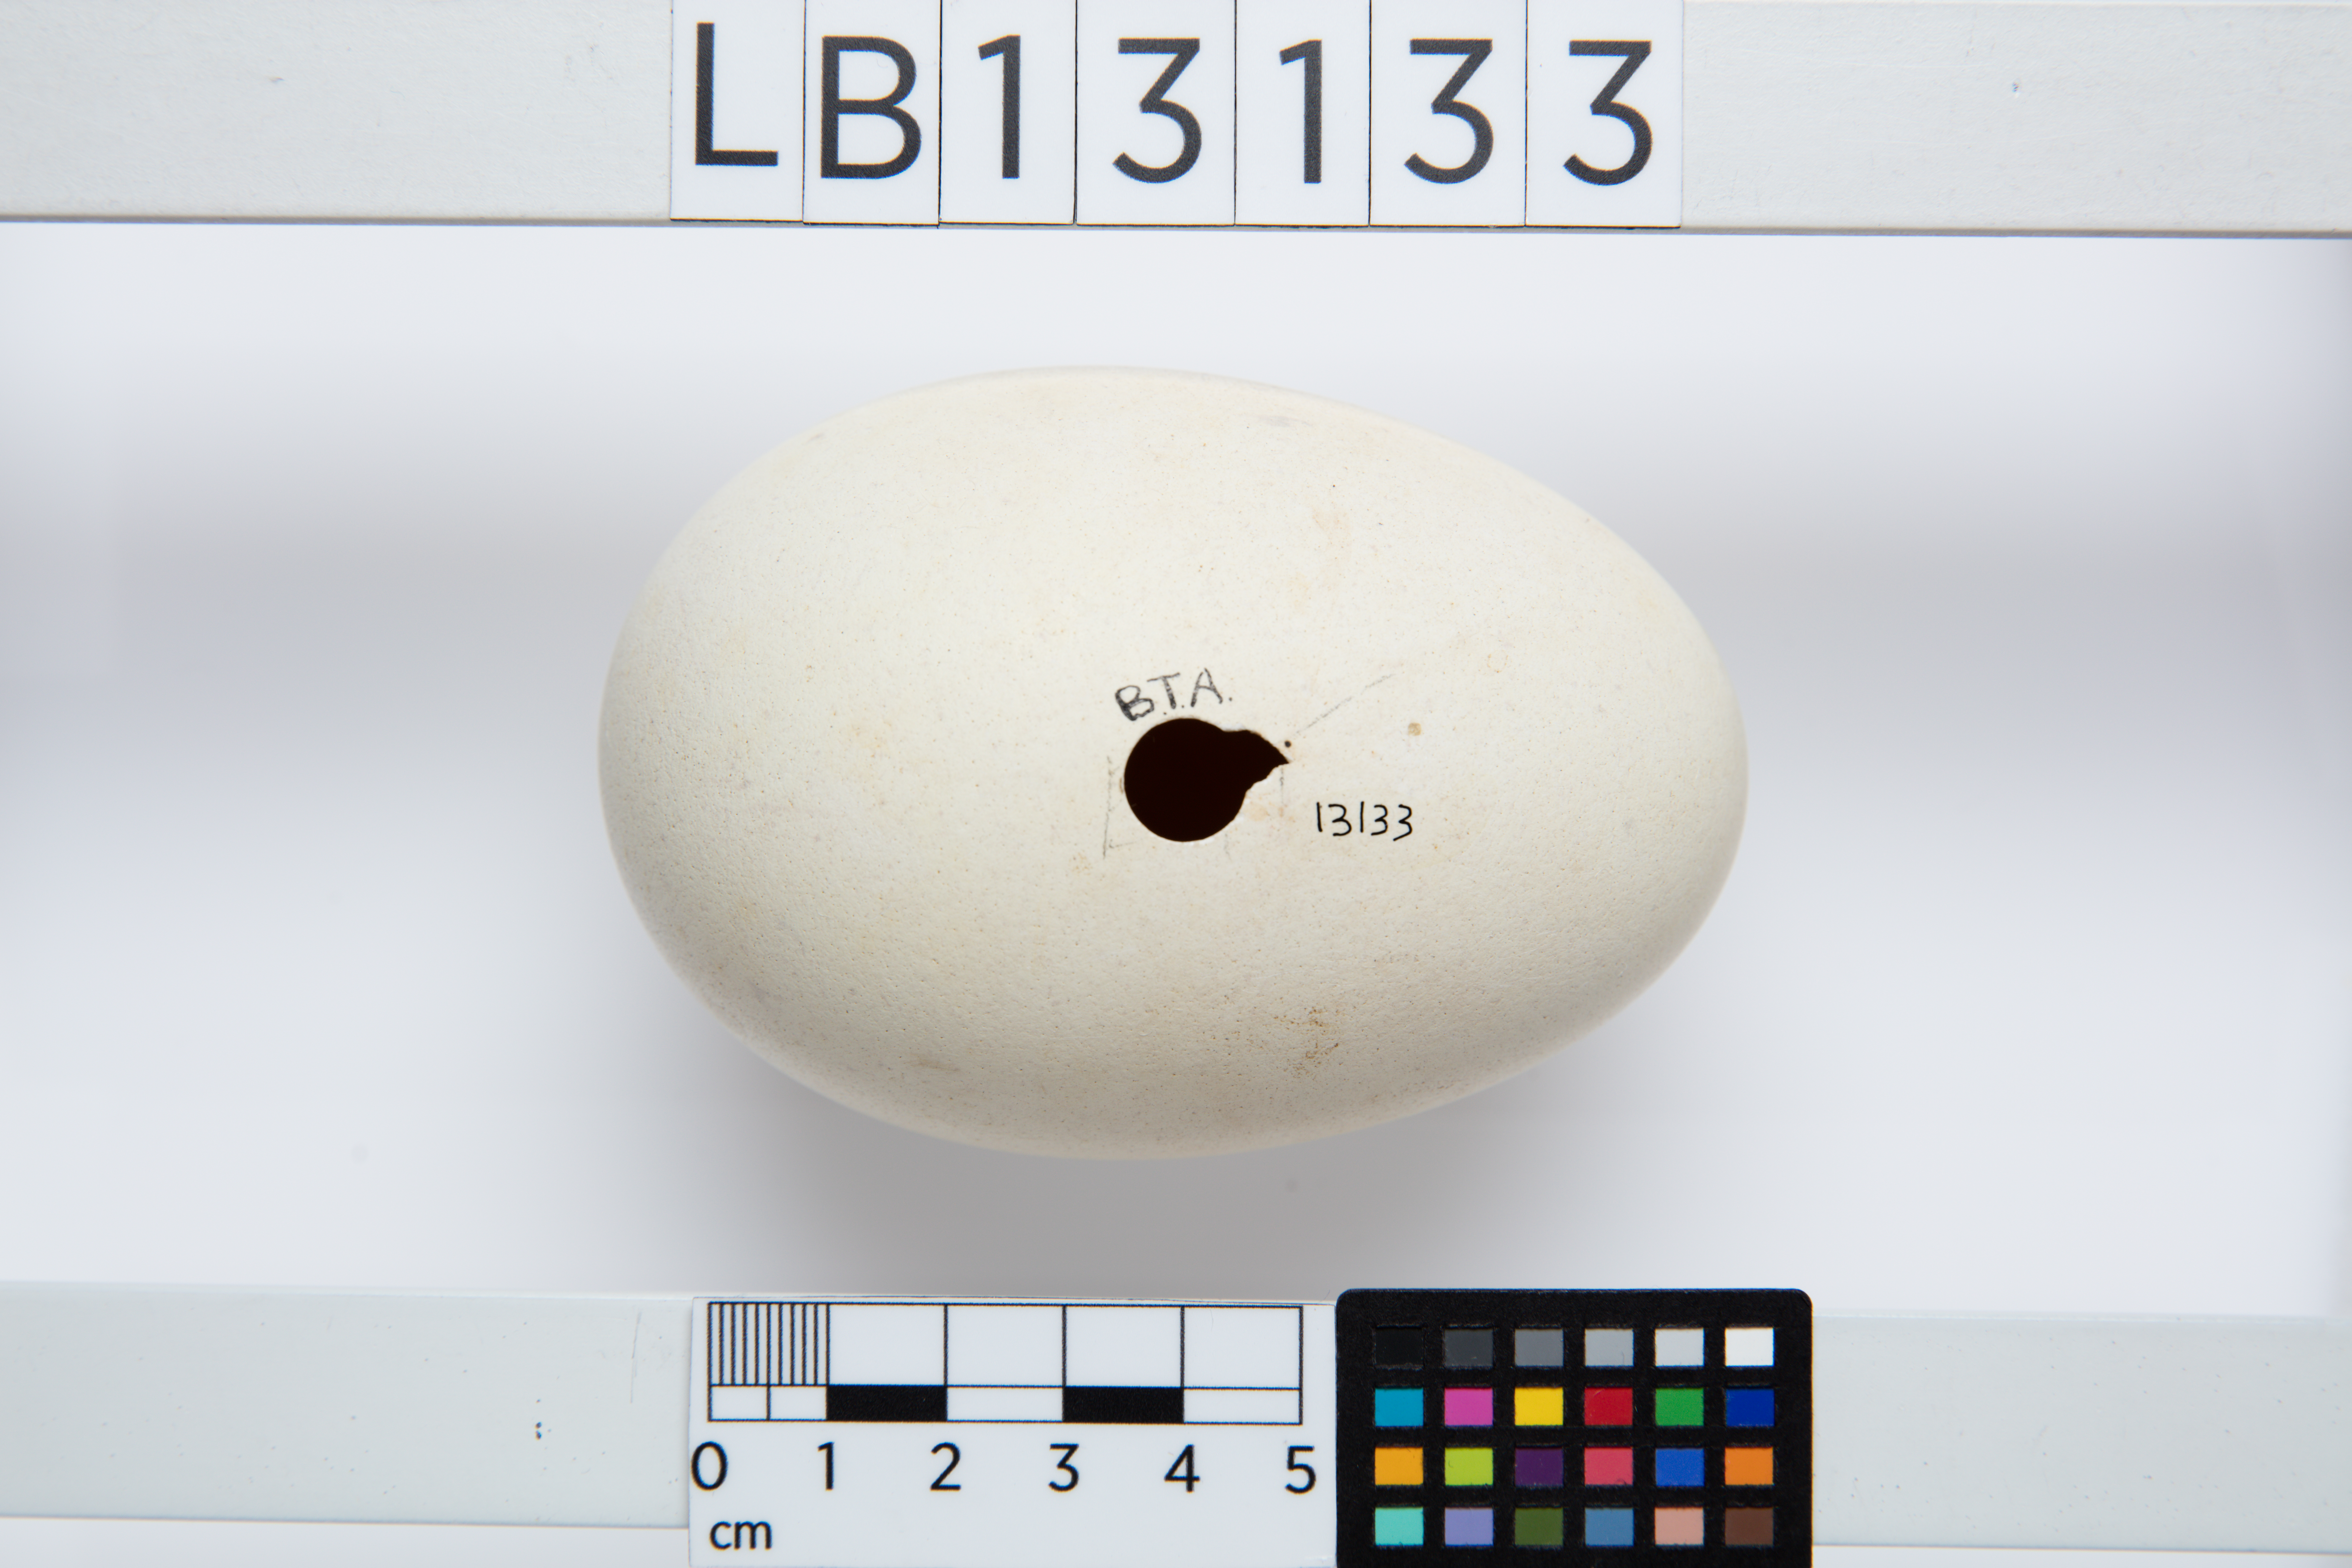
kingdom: Animalia
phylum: Chordata
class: Aves
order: Procellariiformes
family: Diomedeidae
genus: Thalassarche
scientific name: Thalassarche eremita
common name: Chatham albatross
